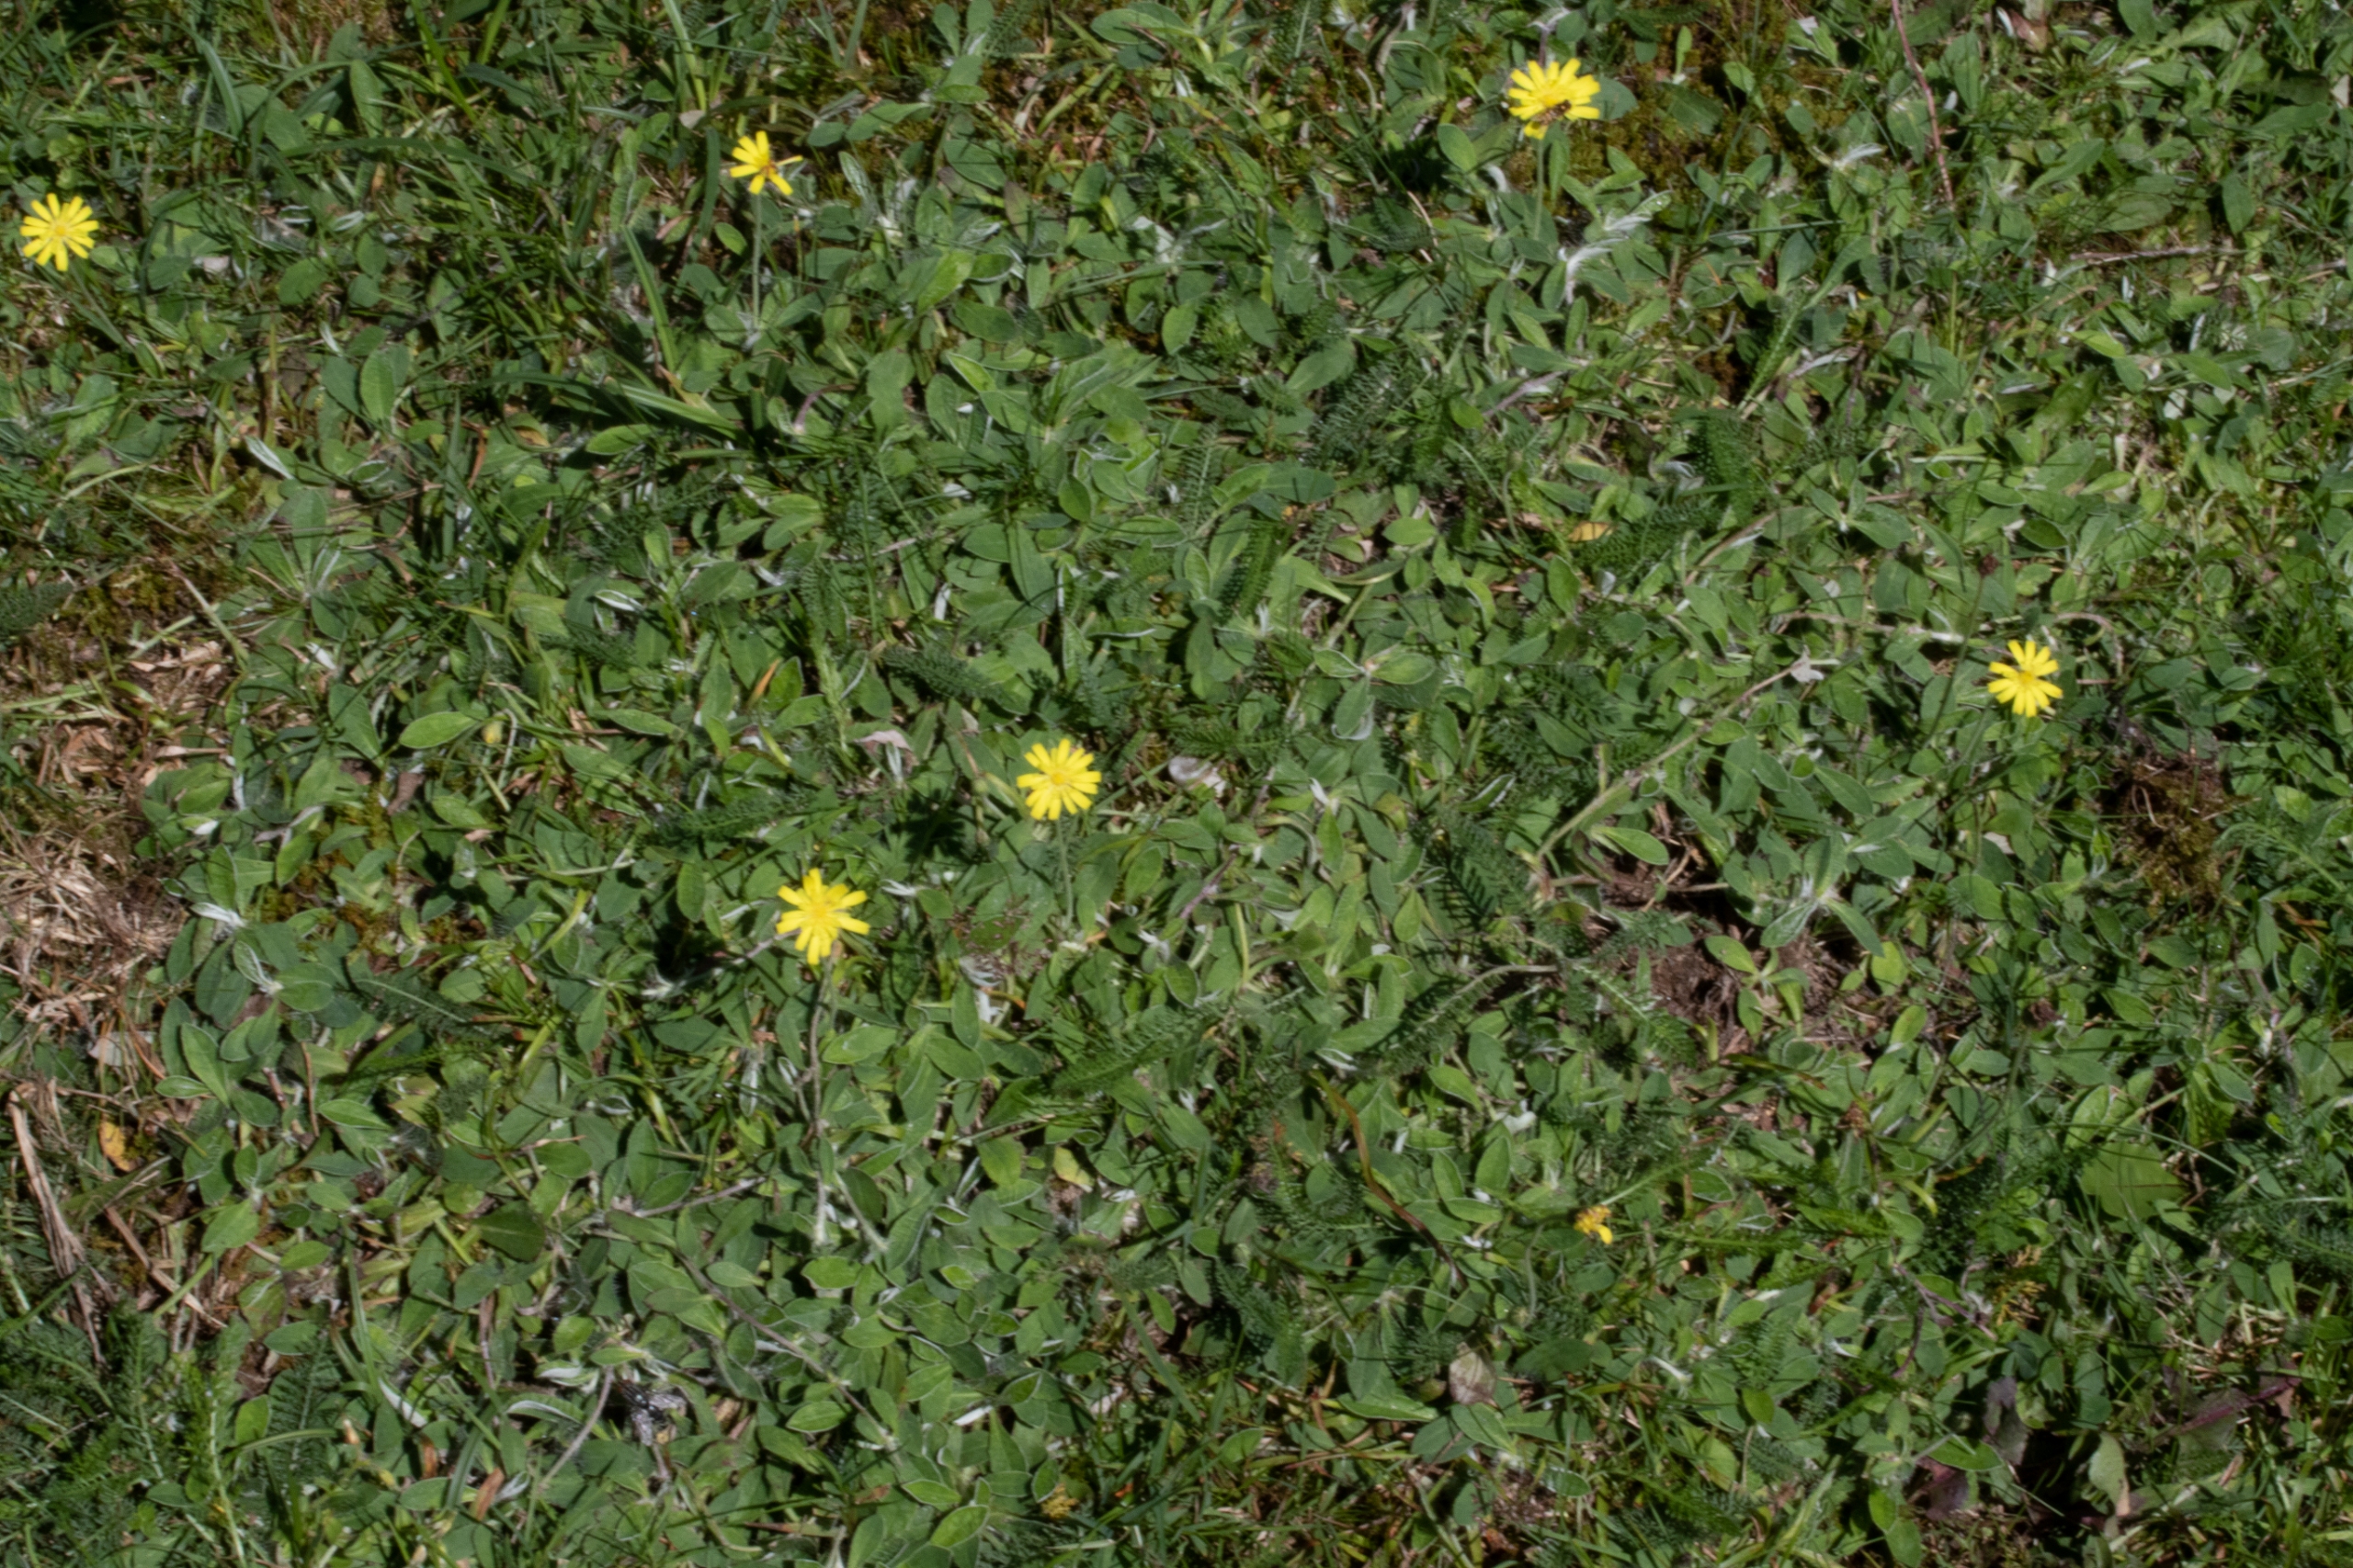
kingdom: Plantae
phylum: Tracheophyta
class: Magnoliopsida
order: Asterales
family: Asteraceae
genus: Pilosella
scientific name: Pilosella officinarum
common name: Håret høgeurt
